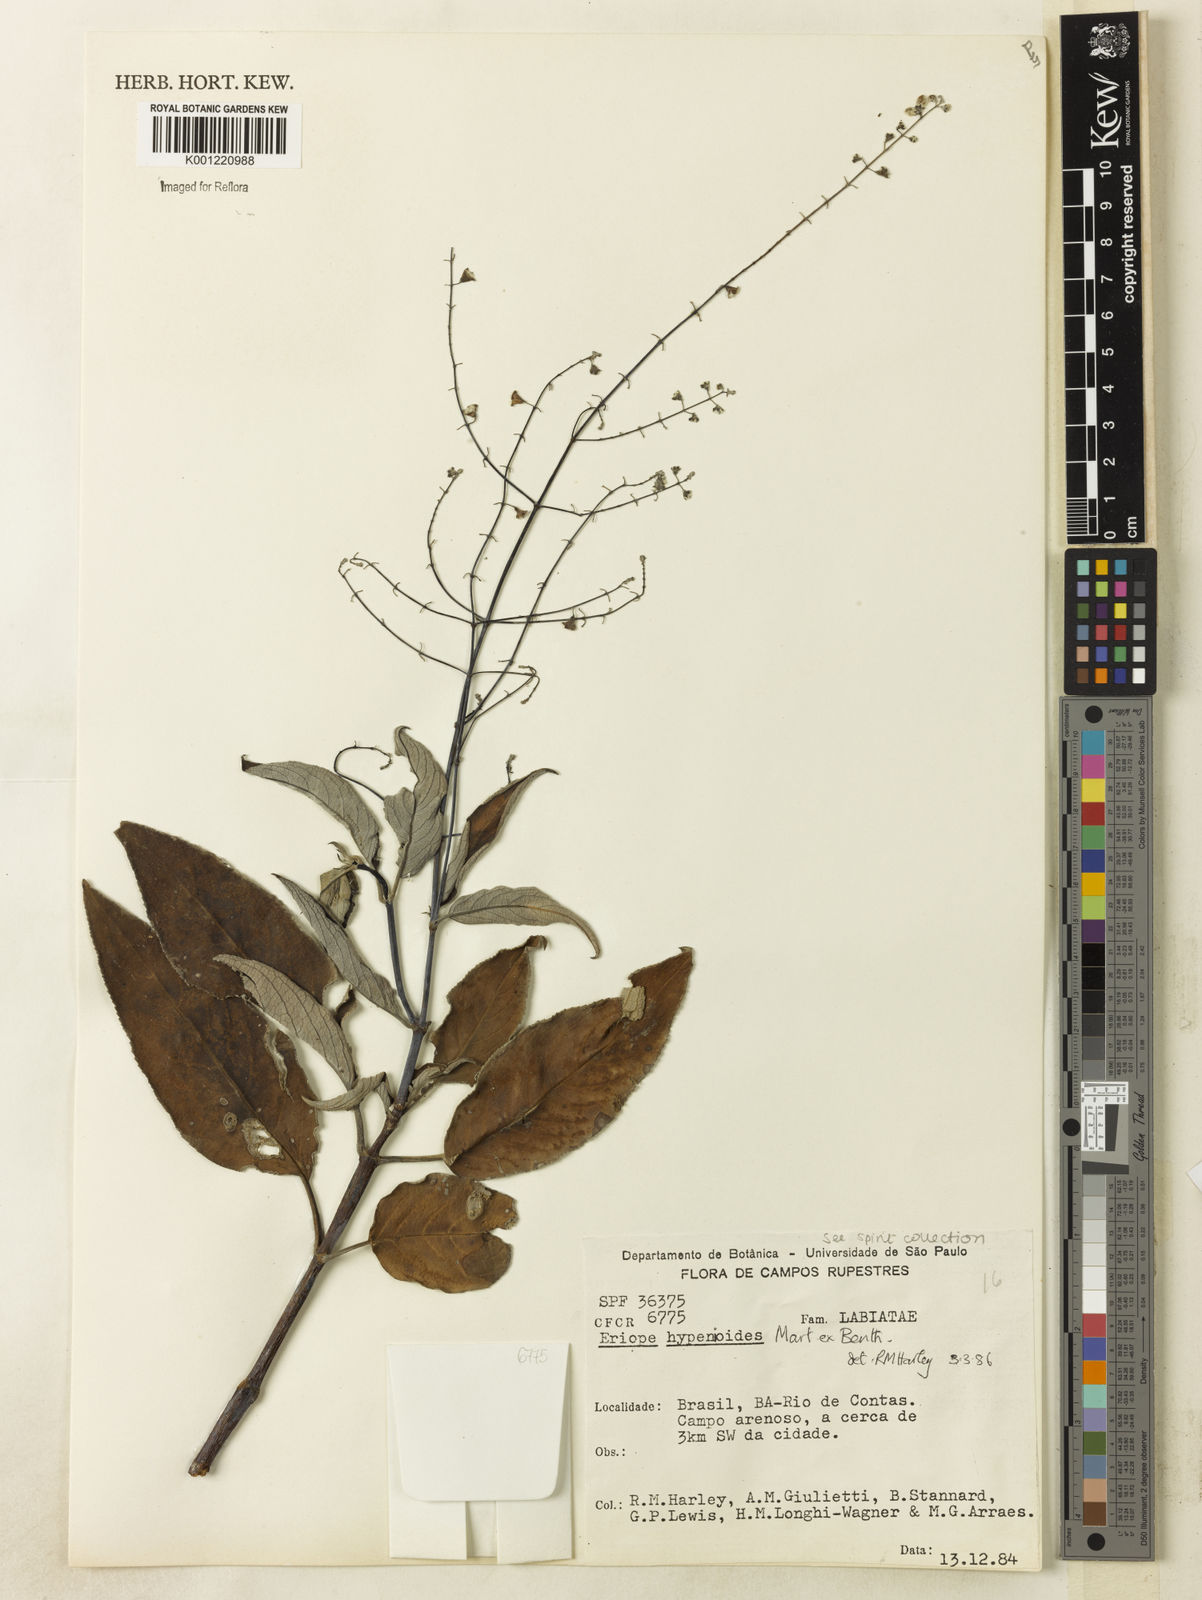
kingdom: Plantae
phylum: Tracheophyta
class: Magnoliopsida
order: Lamiales
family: Lamiaceae
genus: Eriope
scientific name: Eriope hypenioides
